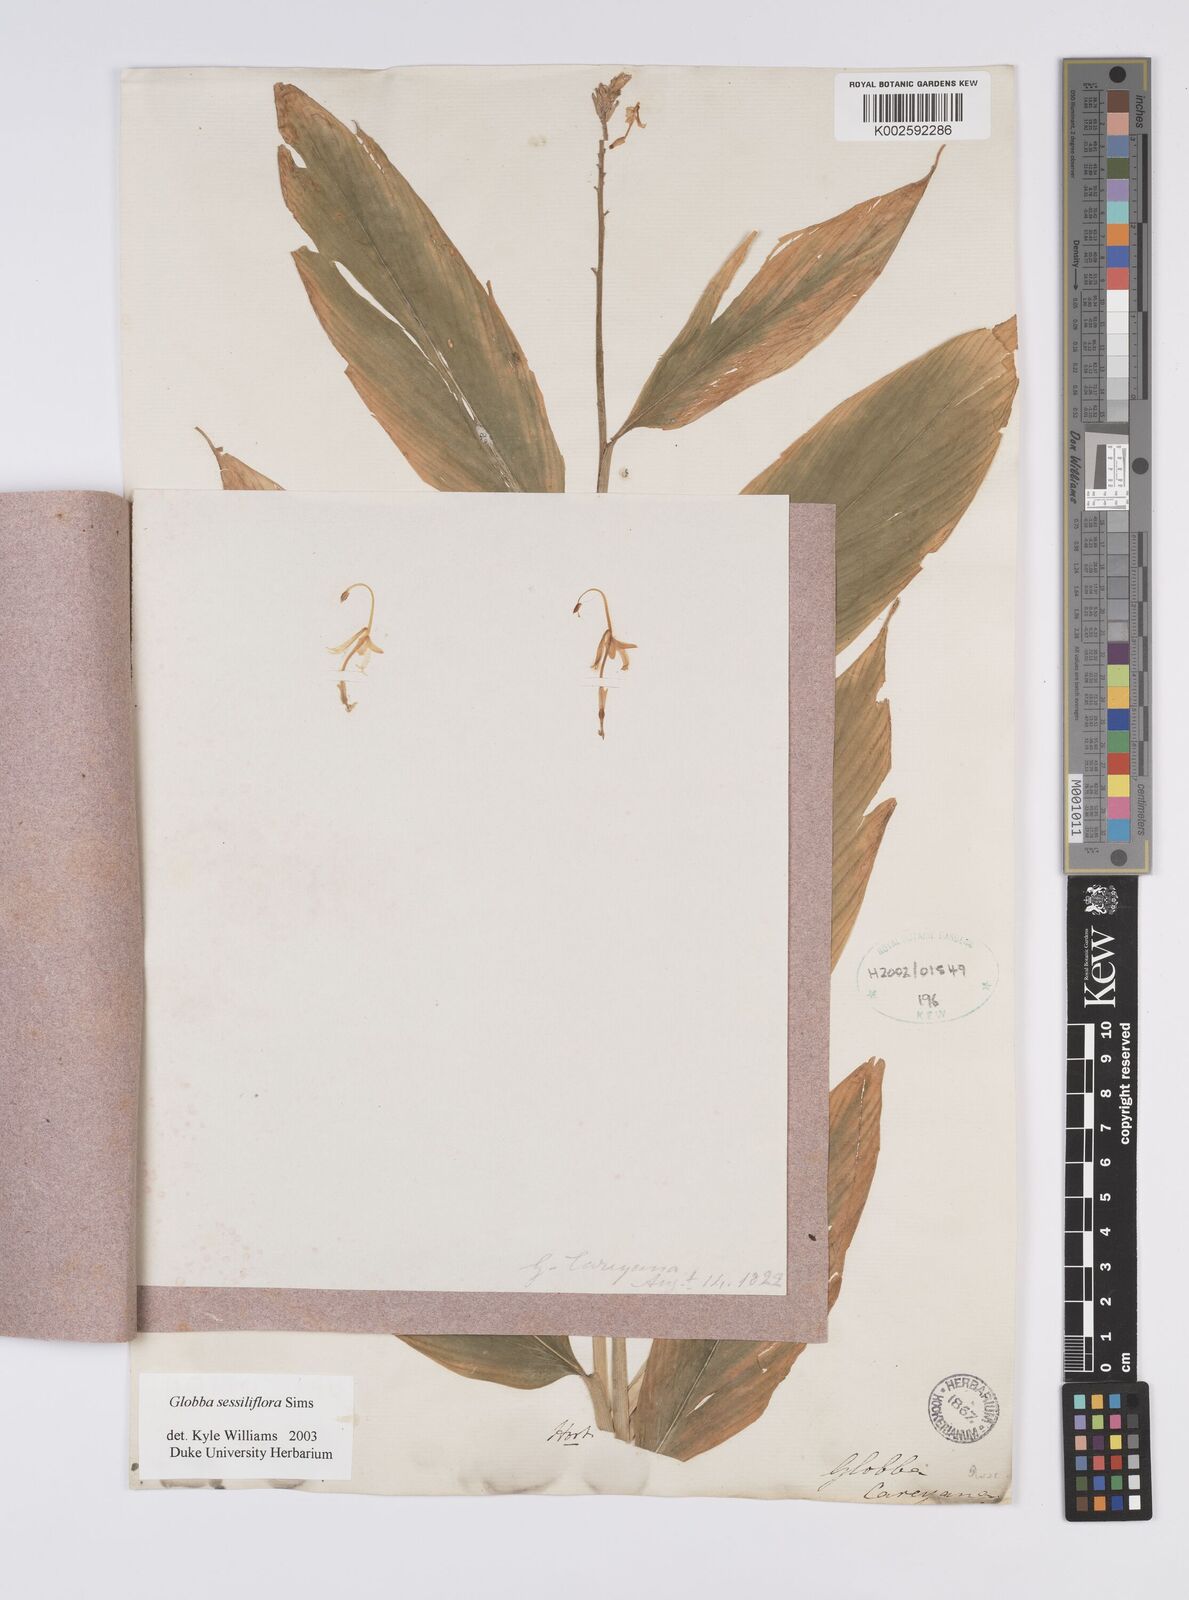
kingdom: Plantae
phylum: Tracheophyta
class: Liliopsida
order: Zingiberales
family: Zingiberaceae
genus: Globba
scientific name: Globba sessiliflora
